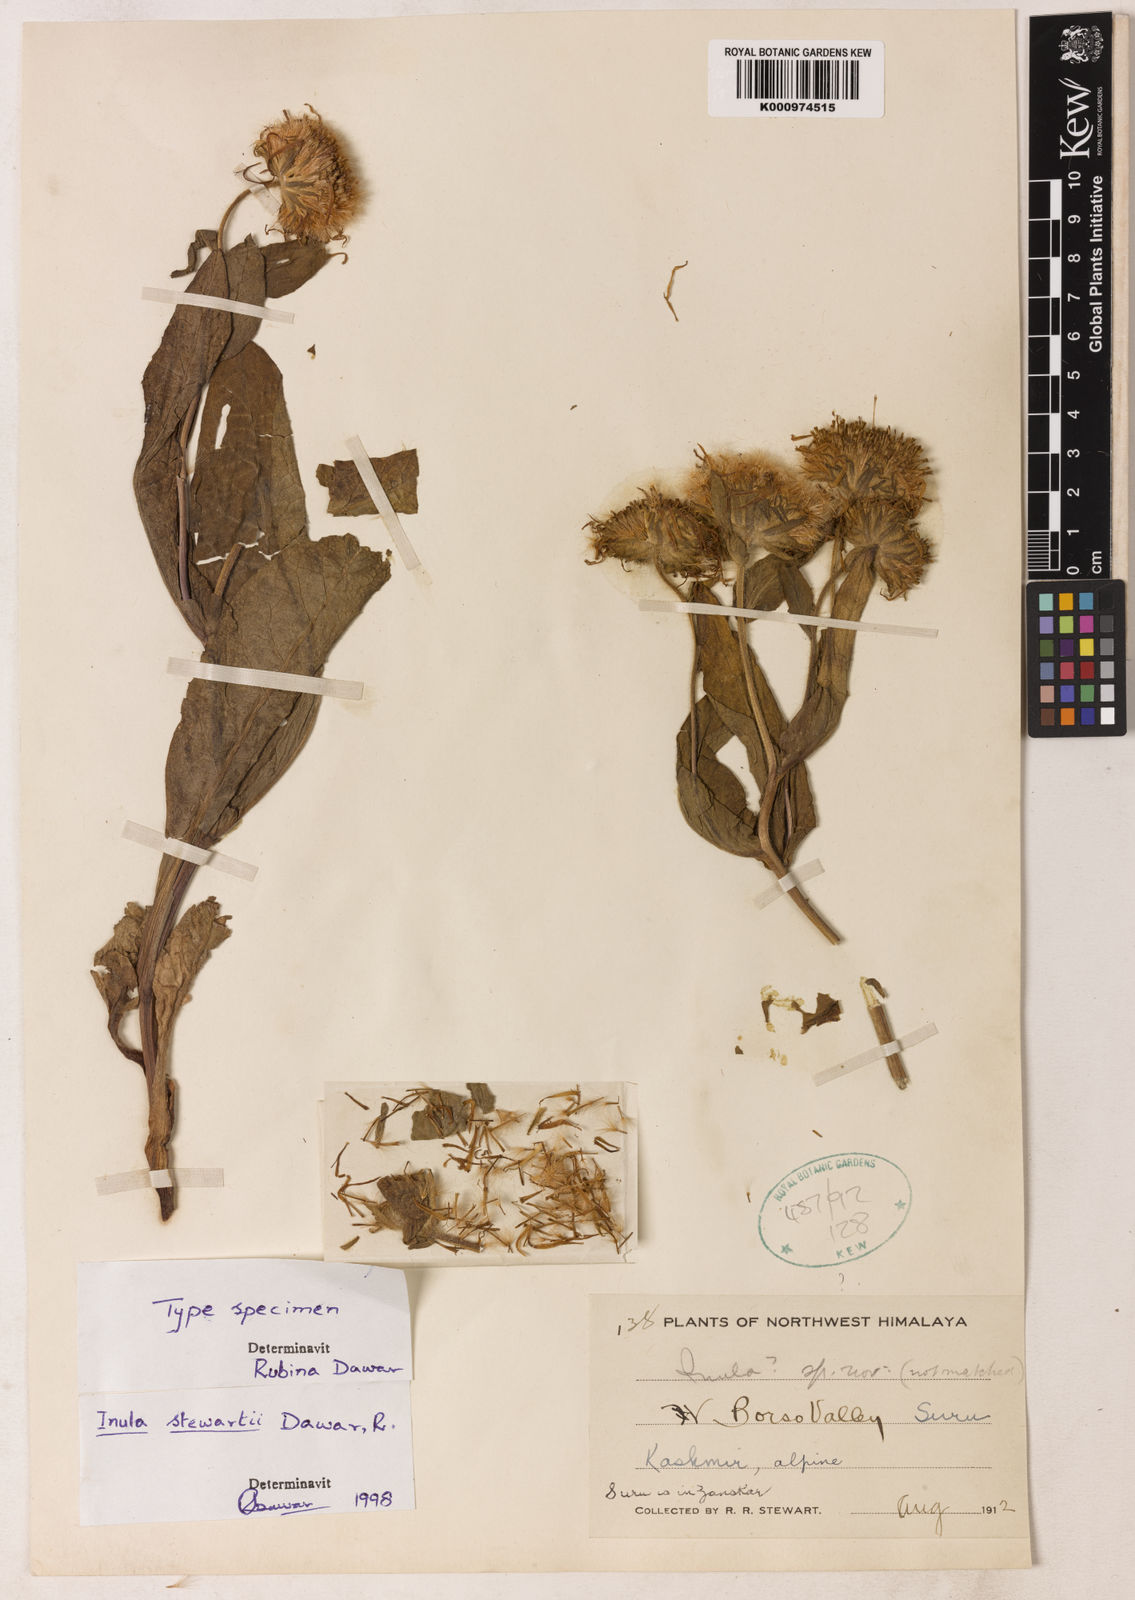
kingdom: Plantae
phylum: Tracheophyta
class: Magnoliopsida
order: Asterales
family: Asteraceae
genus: Inula
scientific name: Inula stewartii
